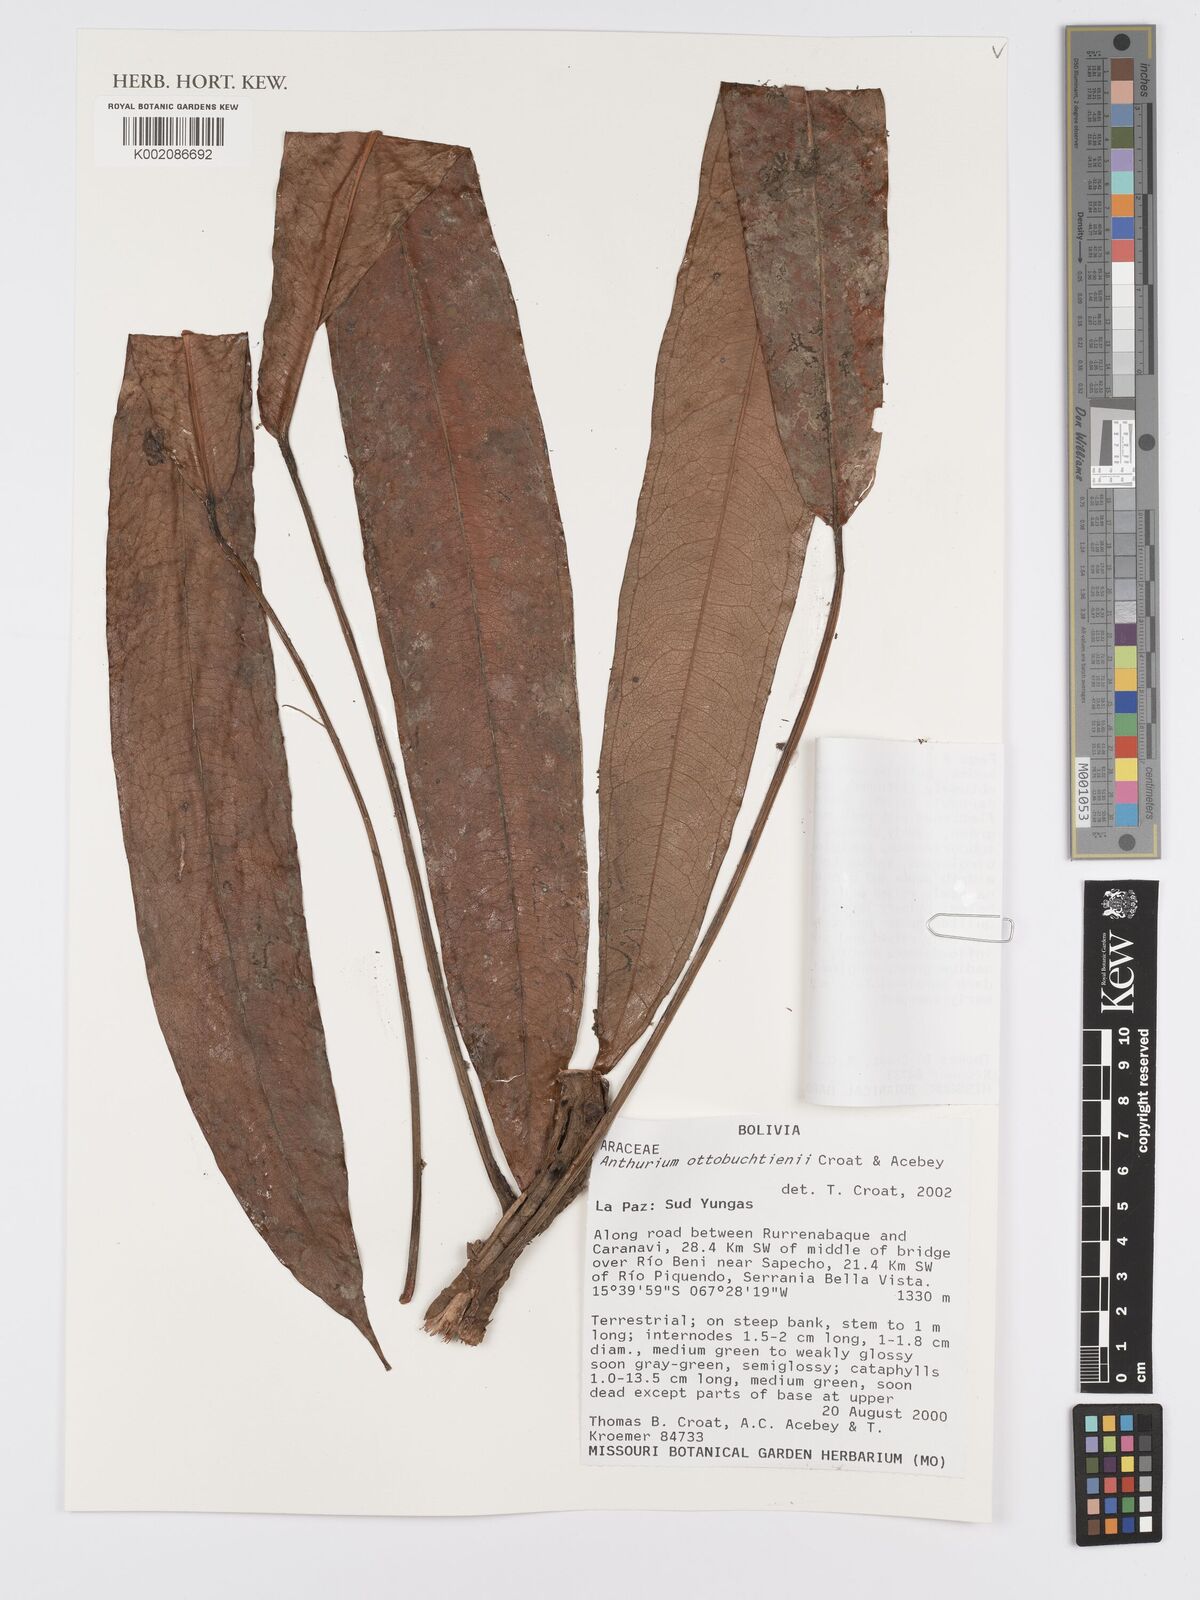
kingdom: Plantae
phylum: Tracheophyta
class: Liliopsida
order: Alismatales
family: Araceae
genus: Anthurium
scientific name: Anthurium ottobuchtienii
